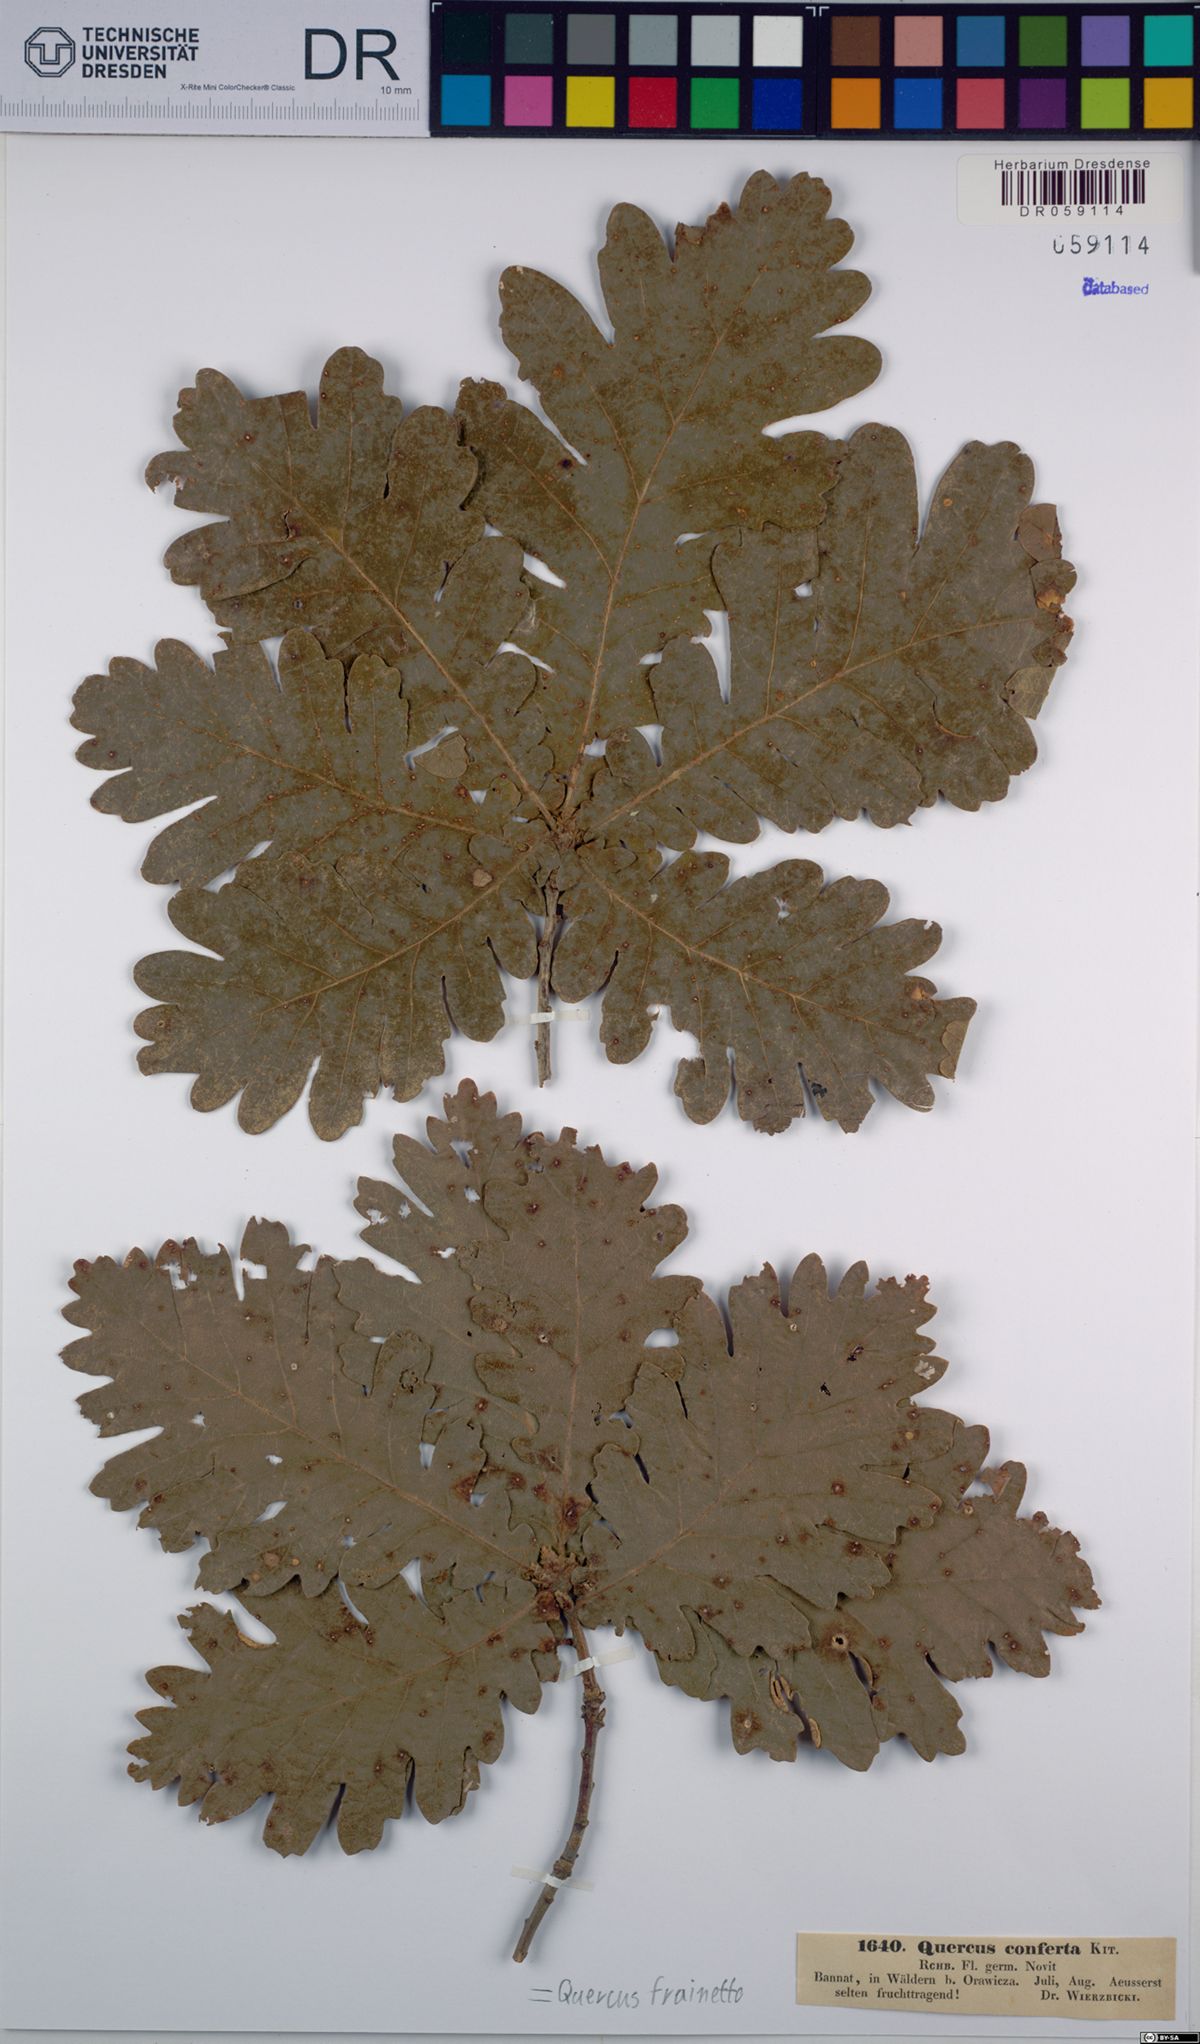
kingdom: Plantae
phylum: Tracheophyta
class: Magnoliopsida
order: Fagales
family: Fagaceae
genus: Quercus
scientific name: Quercus conferta
